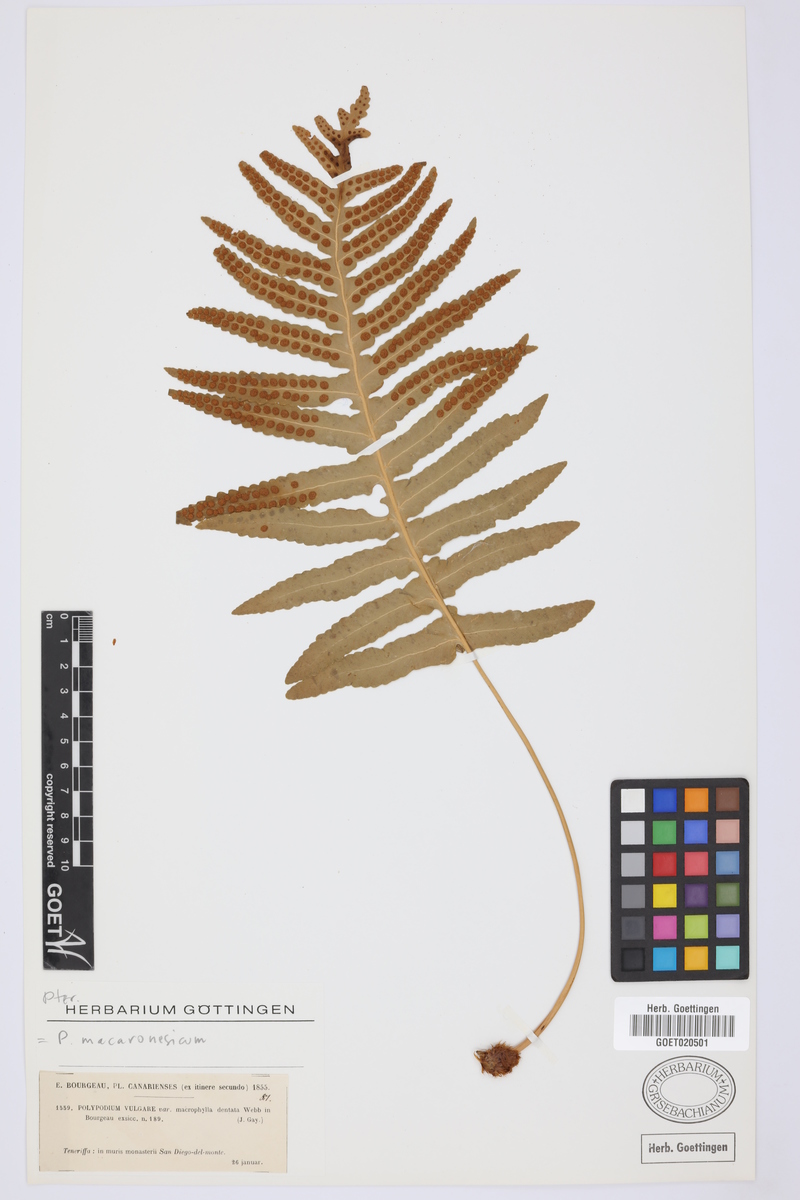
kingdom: Plantae
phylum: Tracheophyta
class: Polypodiopsida
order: Polypodiales
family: Polypodiaceae
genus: Polypodium
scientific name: Polypodium macaronesicum
